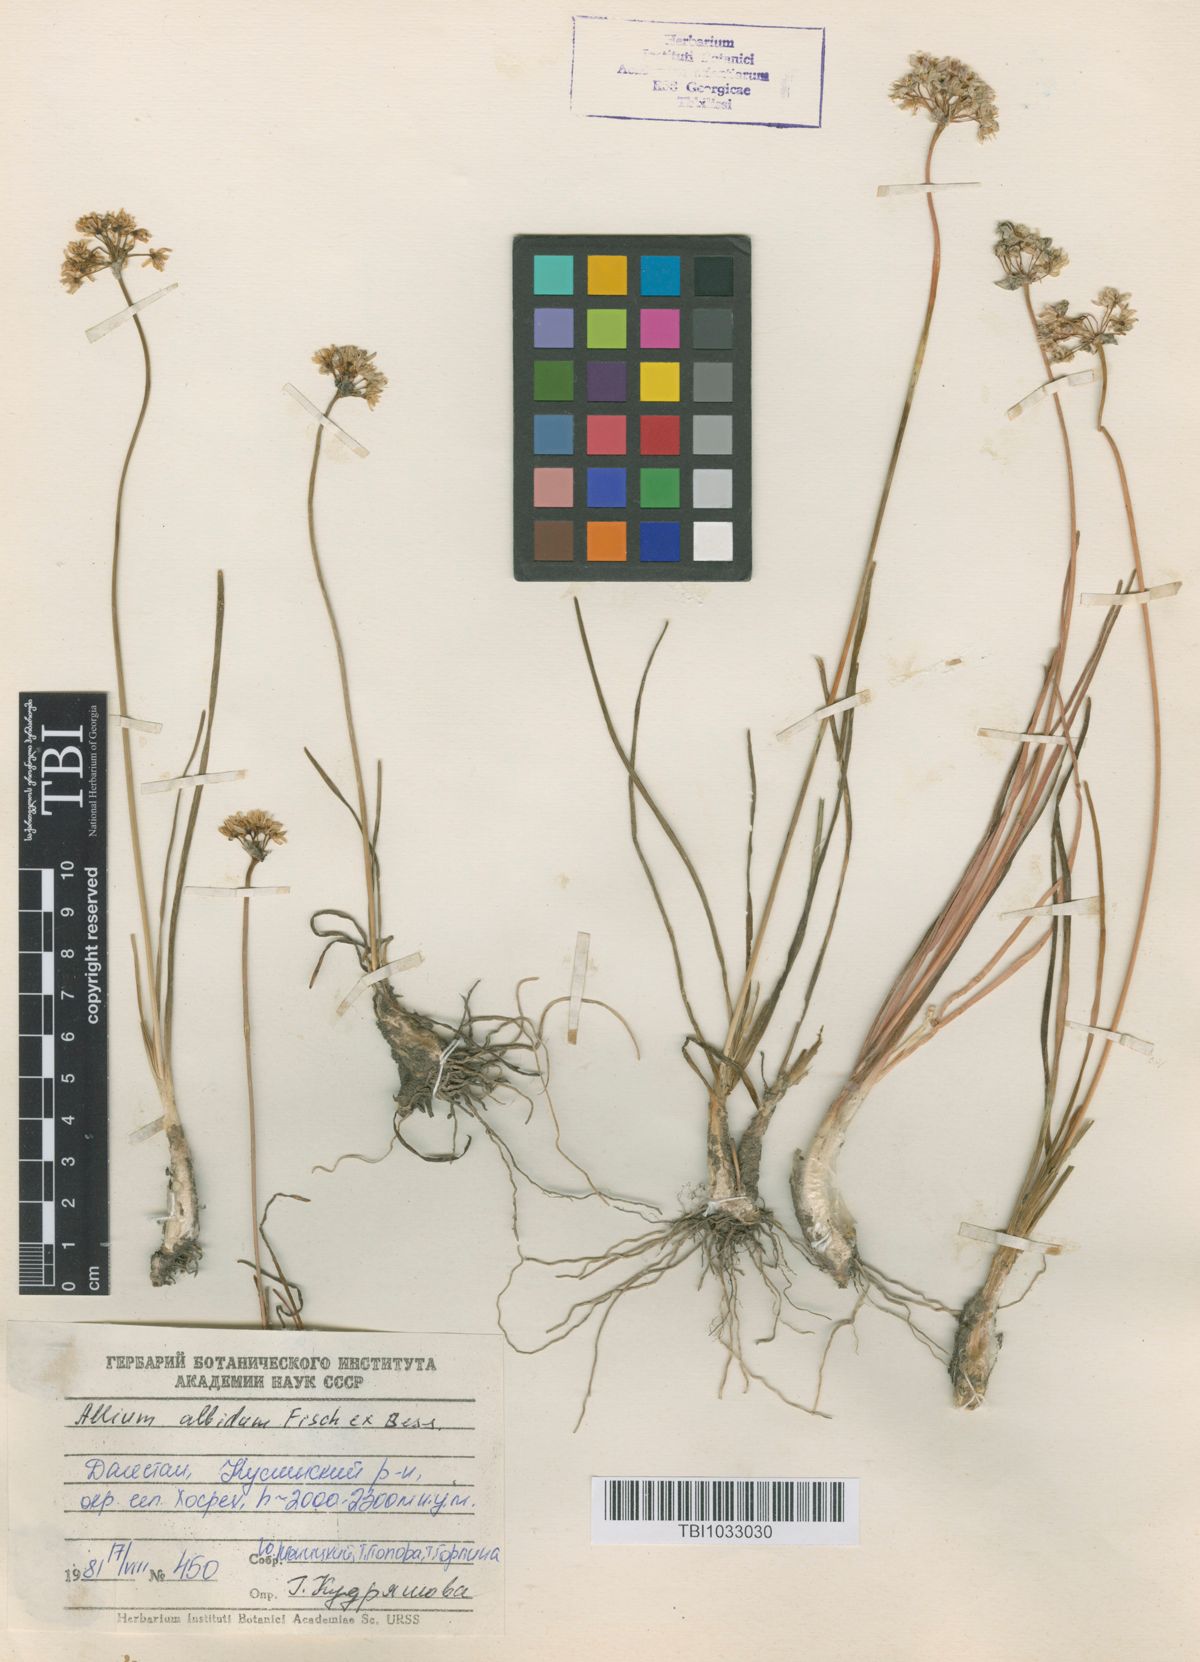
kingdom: Plantae
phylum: Tracheophyta
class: Liliopsida
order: Asparagales
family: Amaryllidaceae
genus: Allium
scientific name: Allium denudatum
